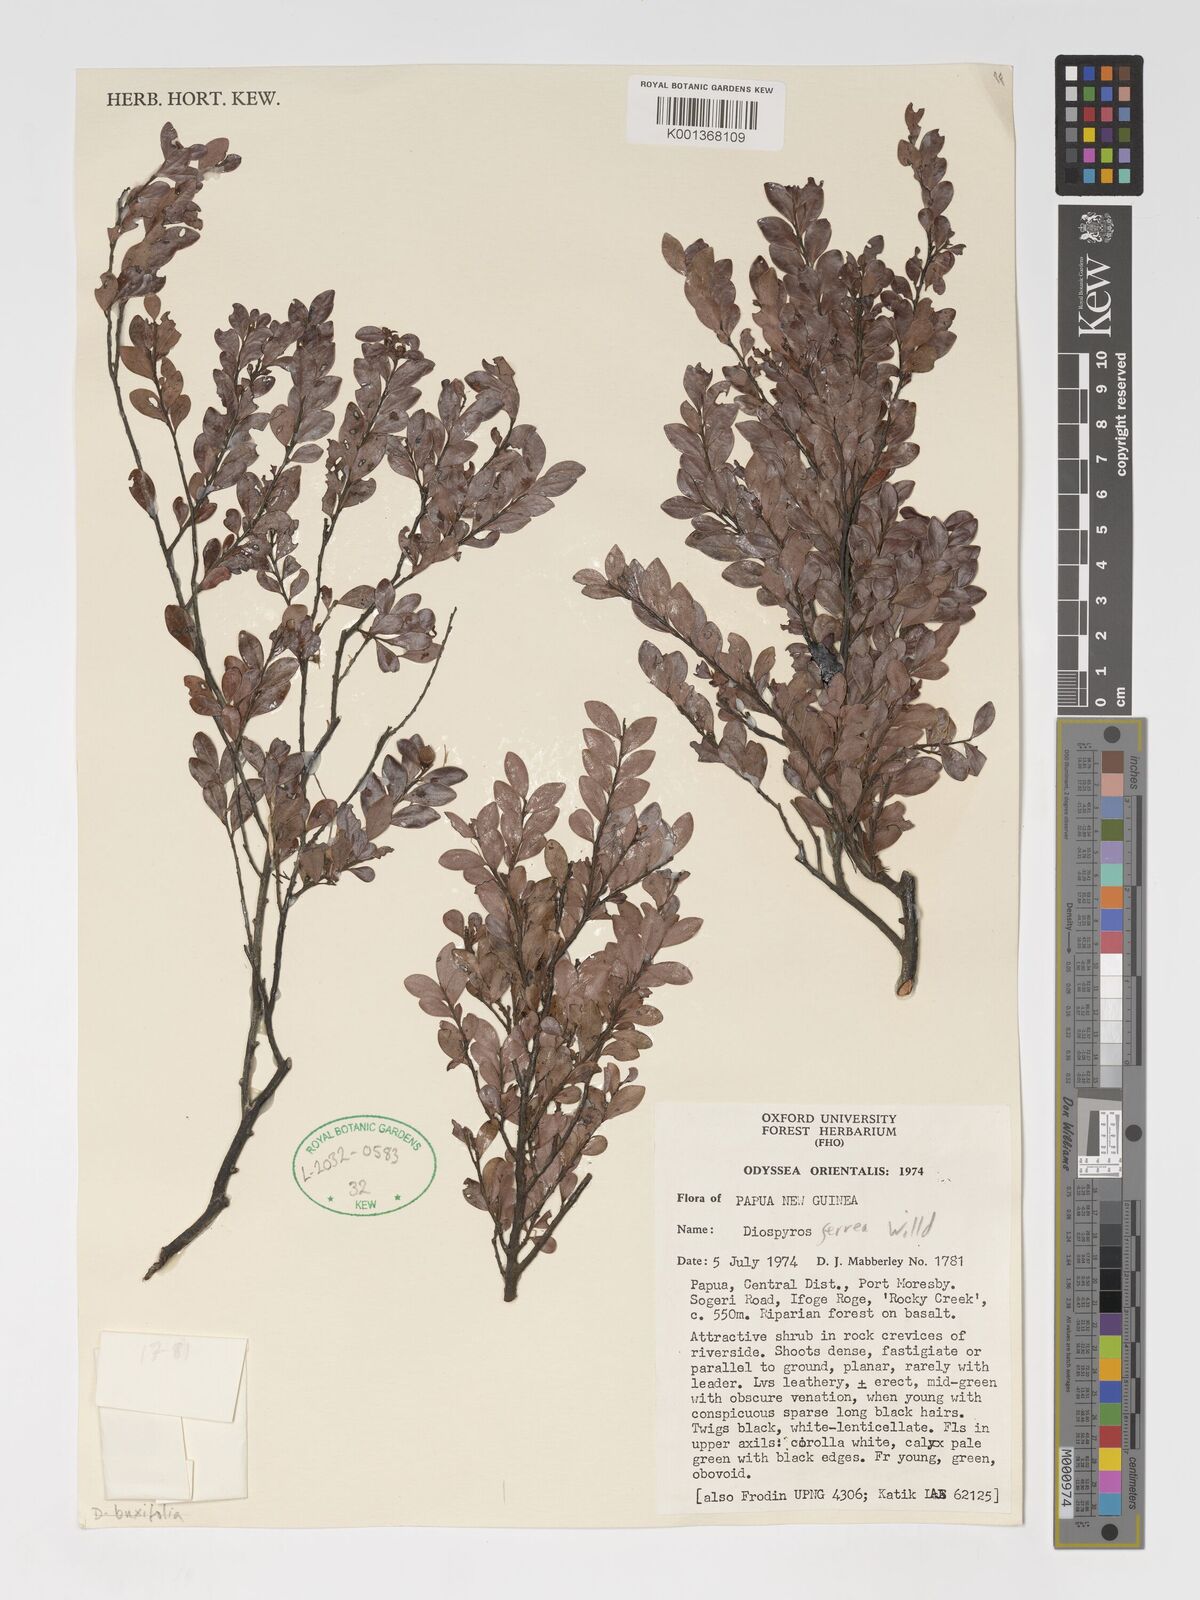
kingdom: Plantae
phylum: Tracheophyta
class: Magnoliopsida
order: Ericales
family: Ebenaceae
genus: Diospyros
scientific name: Diospyros ferrea
